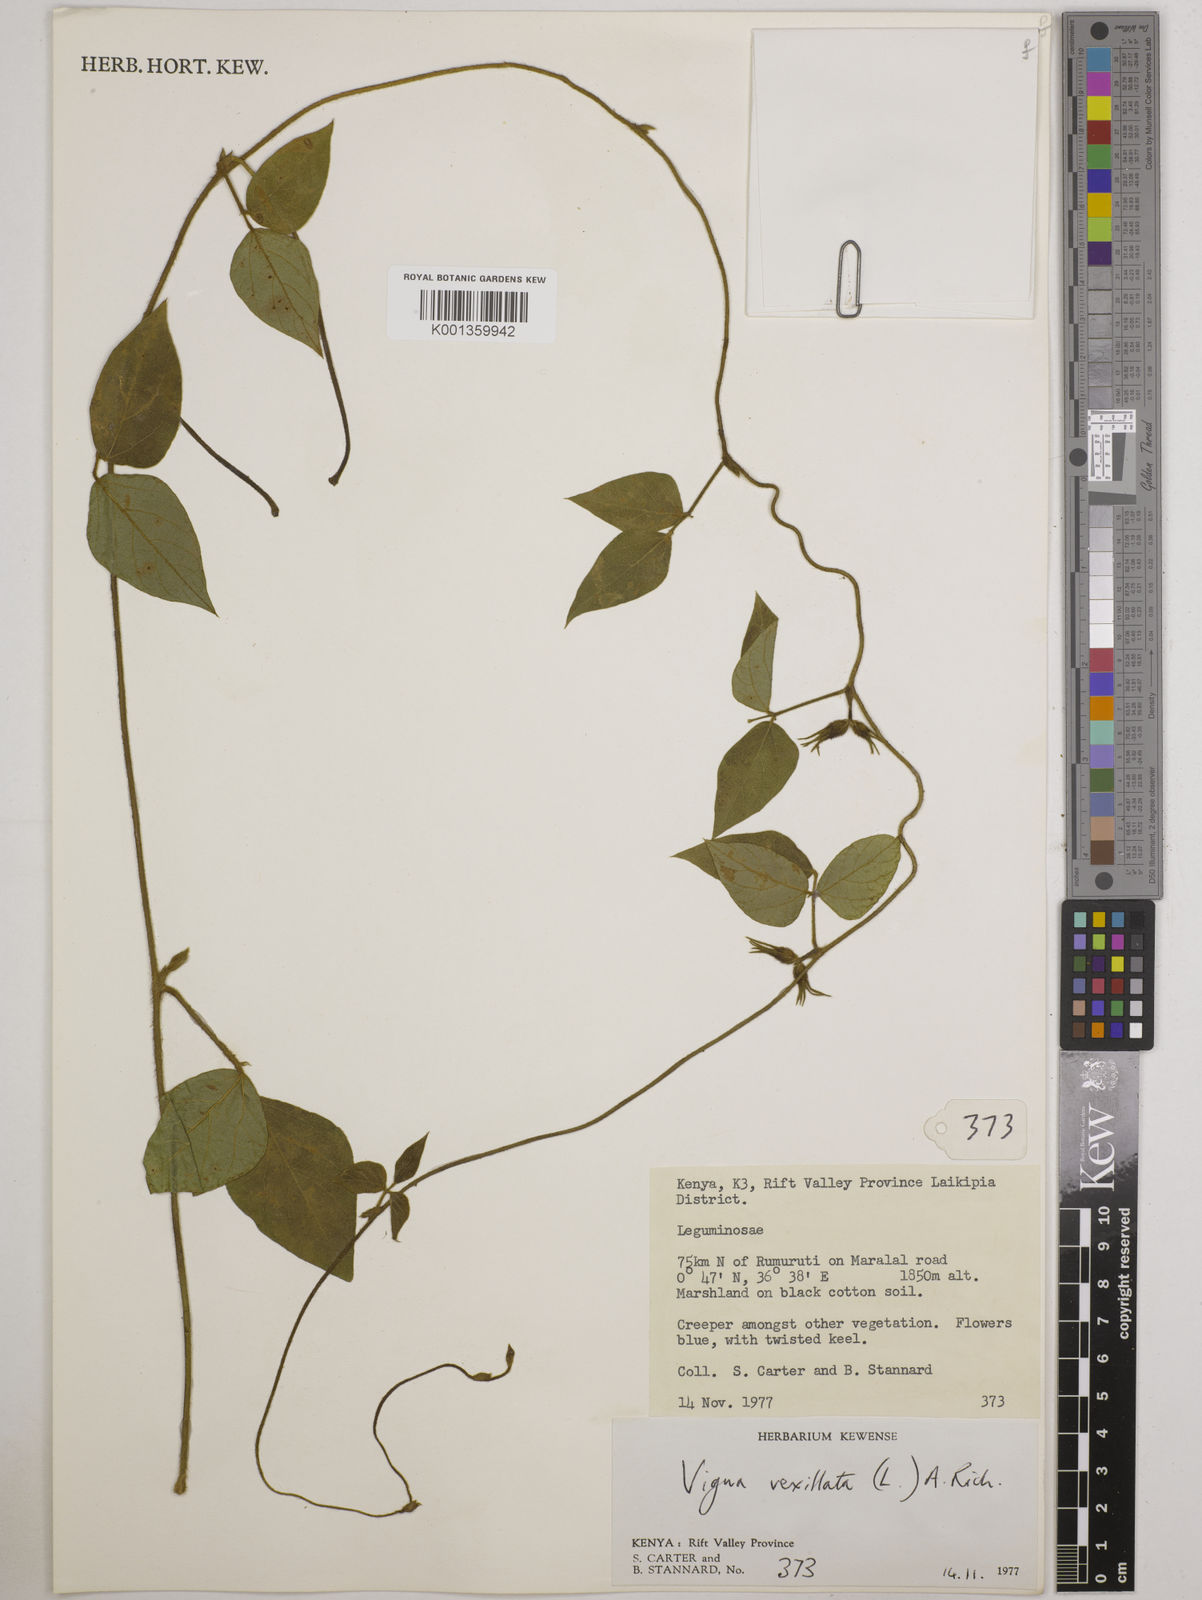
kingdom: Plantae
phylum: Tracheophyta
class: Magnoliopsida
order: Fabales
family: Fabaceae
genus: Vigna
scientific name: Vigna vexillata
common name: Zombi pea
